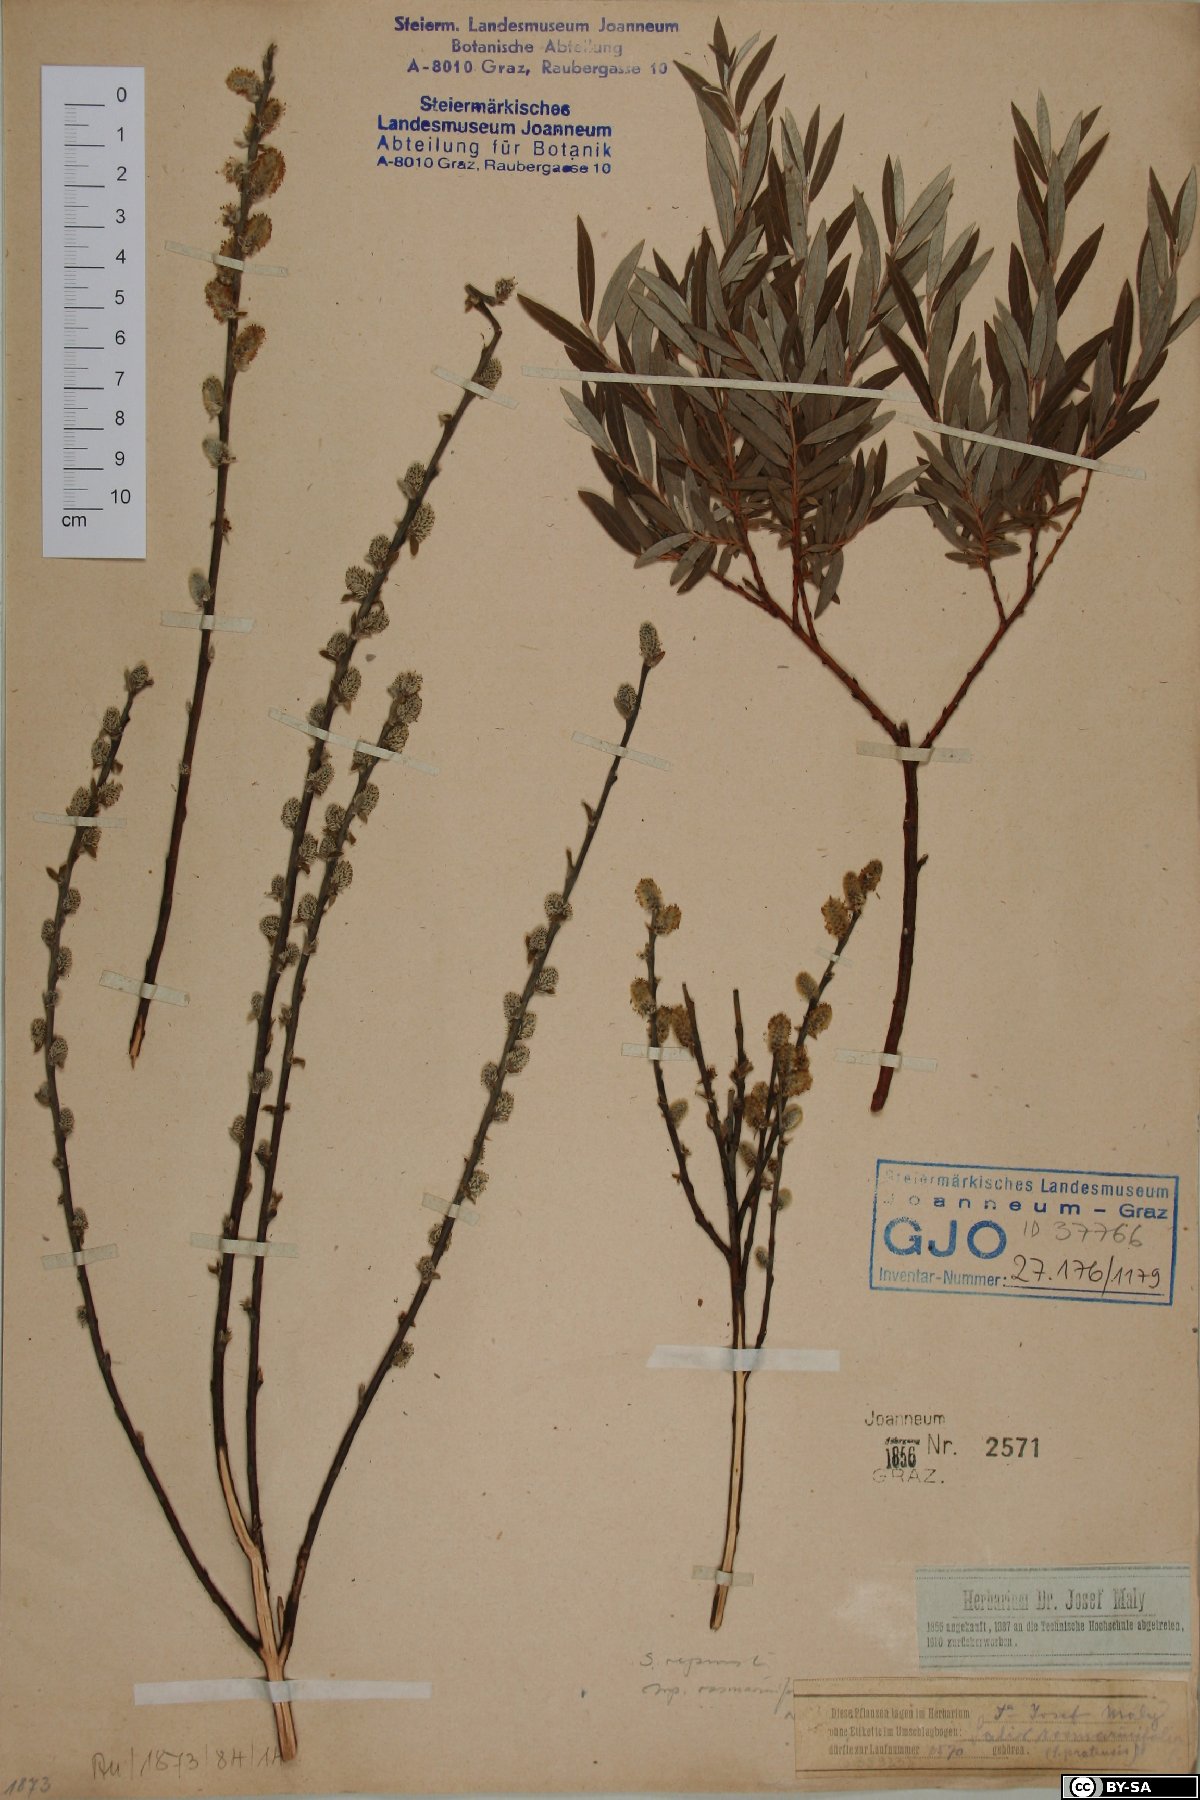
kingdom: Plantae
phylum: Tracheophyta
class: Magnoliopsida
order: Malpighiales
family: Salicaceae
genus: Salix
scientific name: Salix rosmarinifolia
